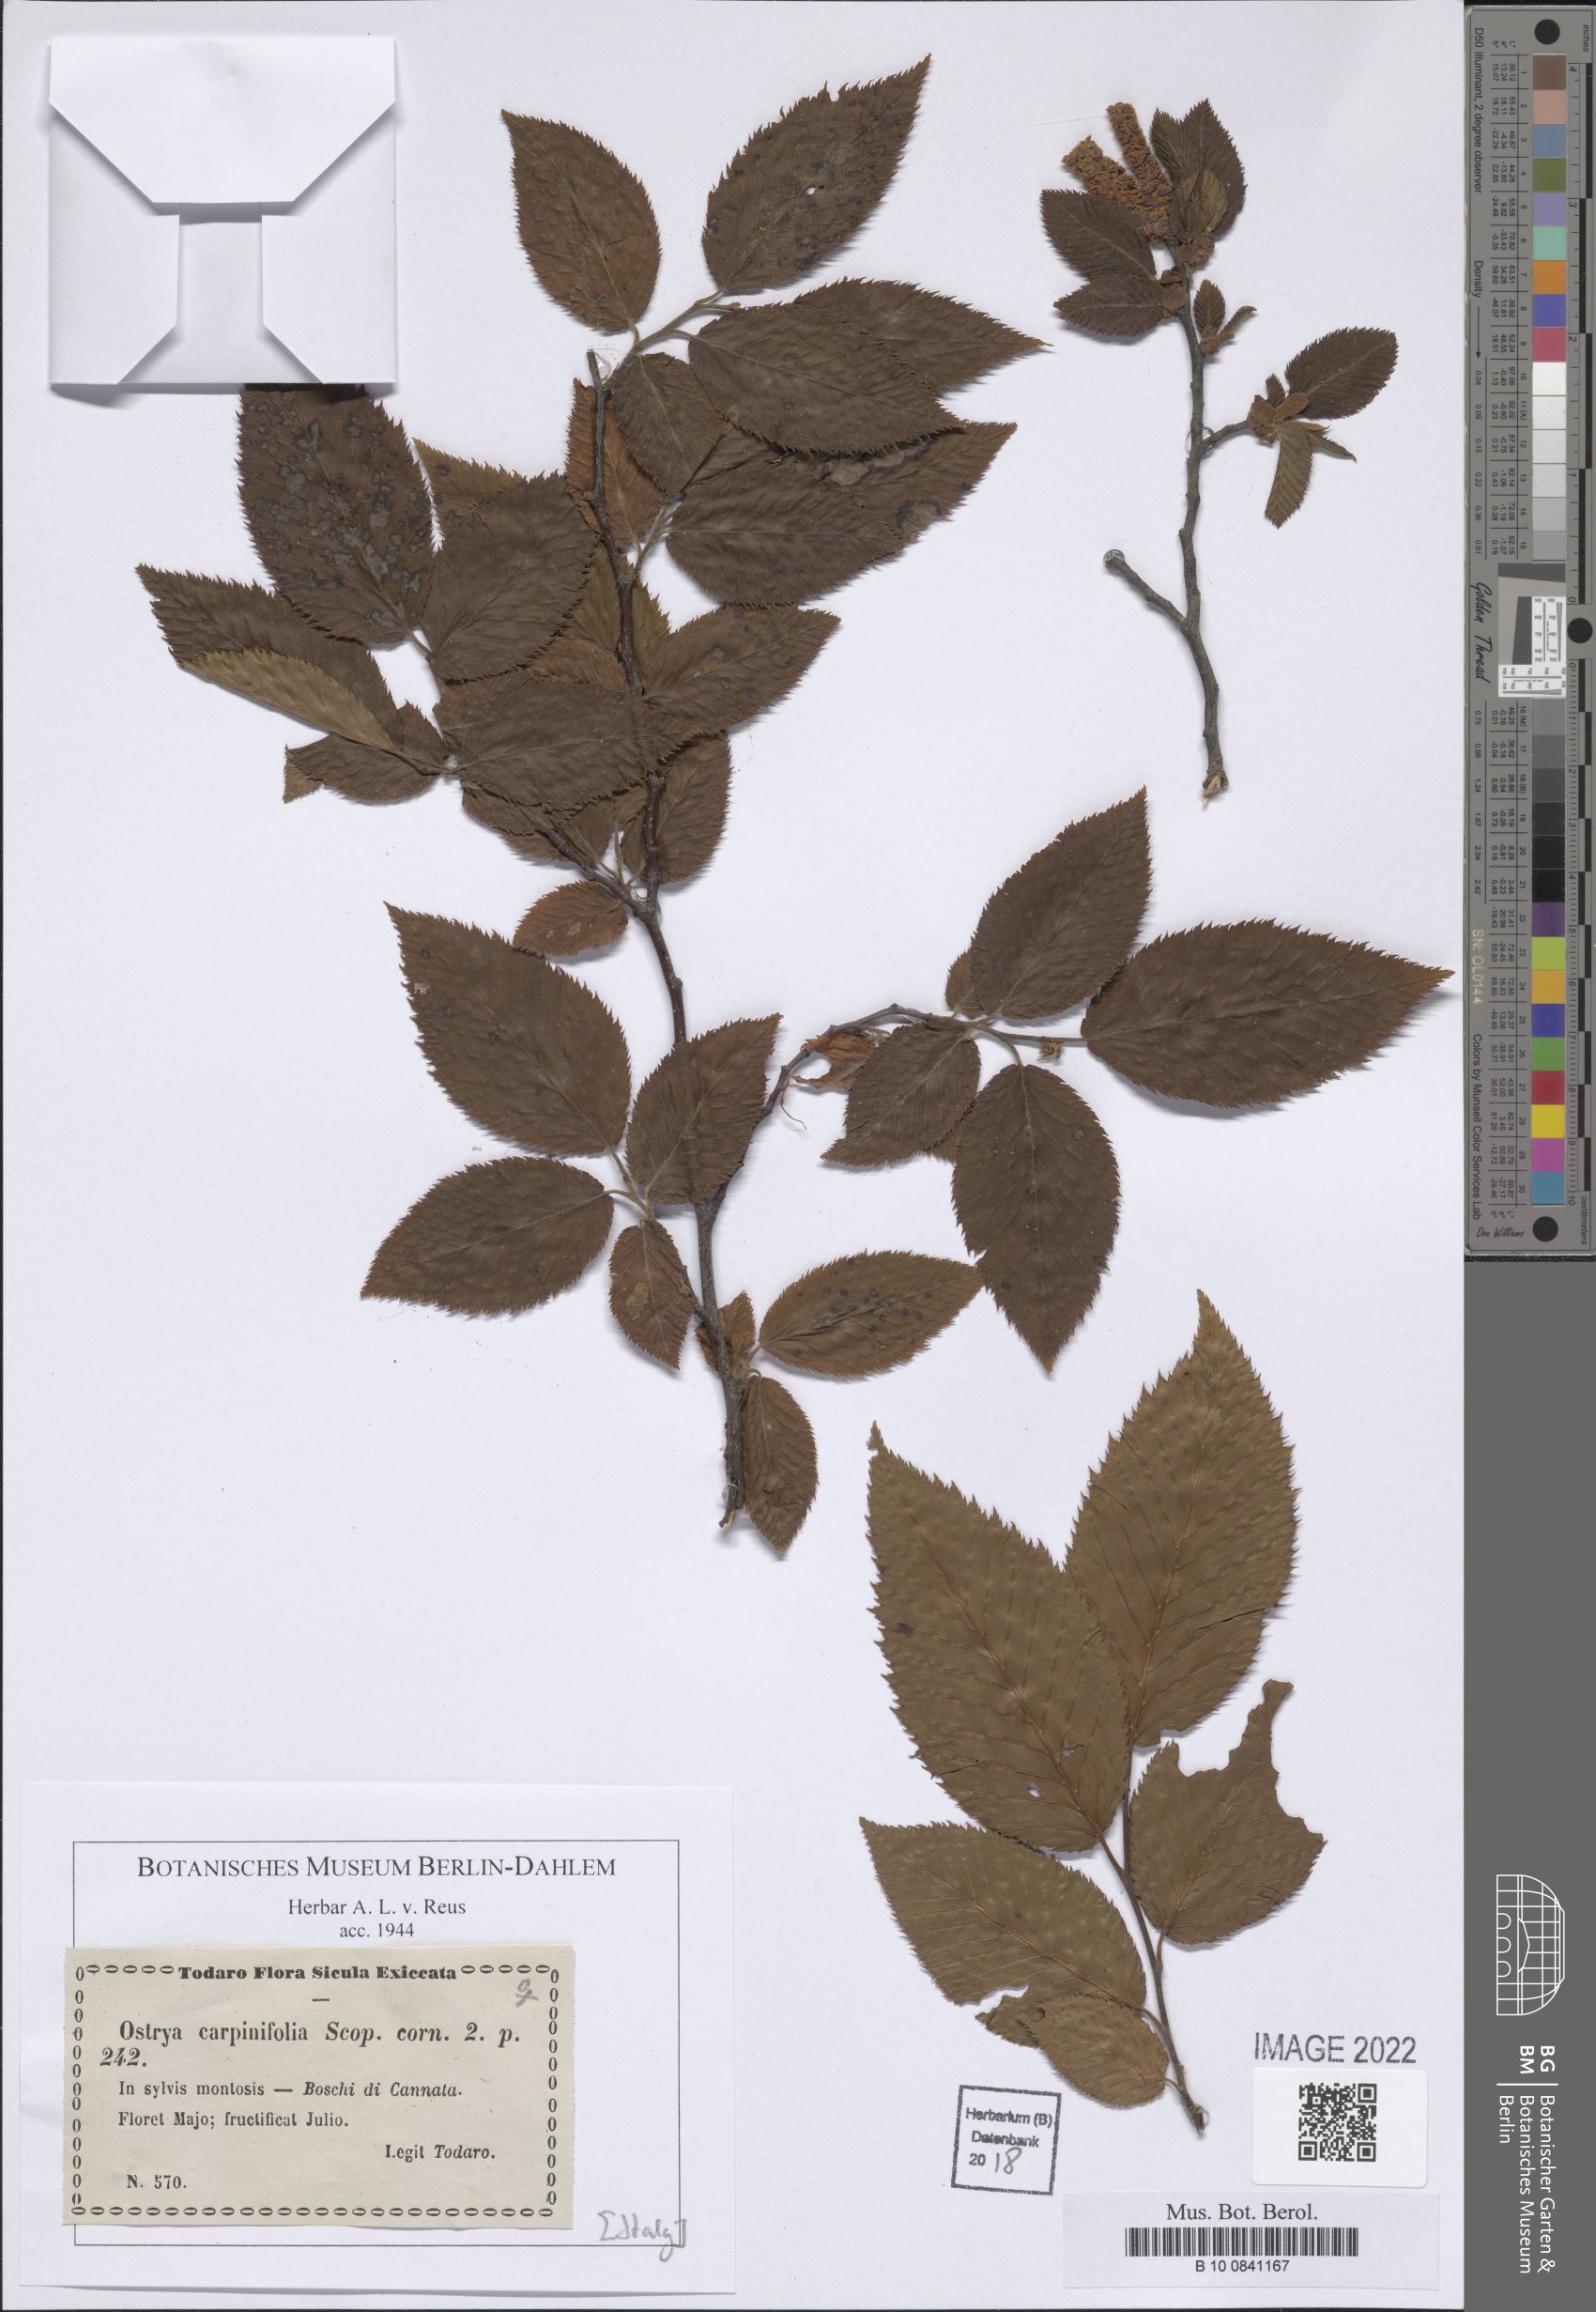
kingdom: Plantae
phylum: Tracheophyta
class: Magnoliopsida
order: Fagales
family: Betulaceae
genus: Ostrya
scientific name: Ostrya carpinifolia
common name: European hop-hornbeam
